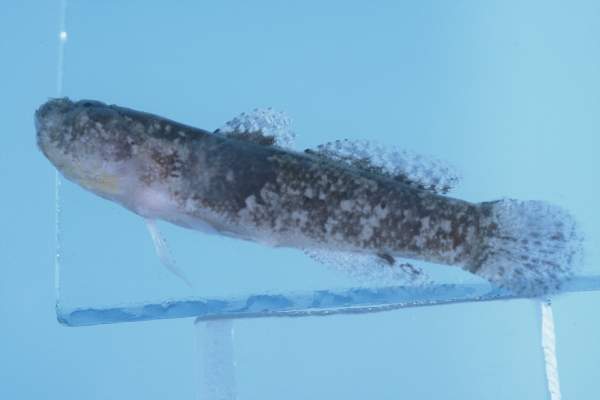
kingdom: Animalia
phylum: Chordata
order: Perciformes
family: Gobiidae
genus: Callogobius
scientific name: Callogobius flavobrunneus
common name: Slimy goby
